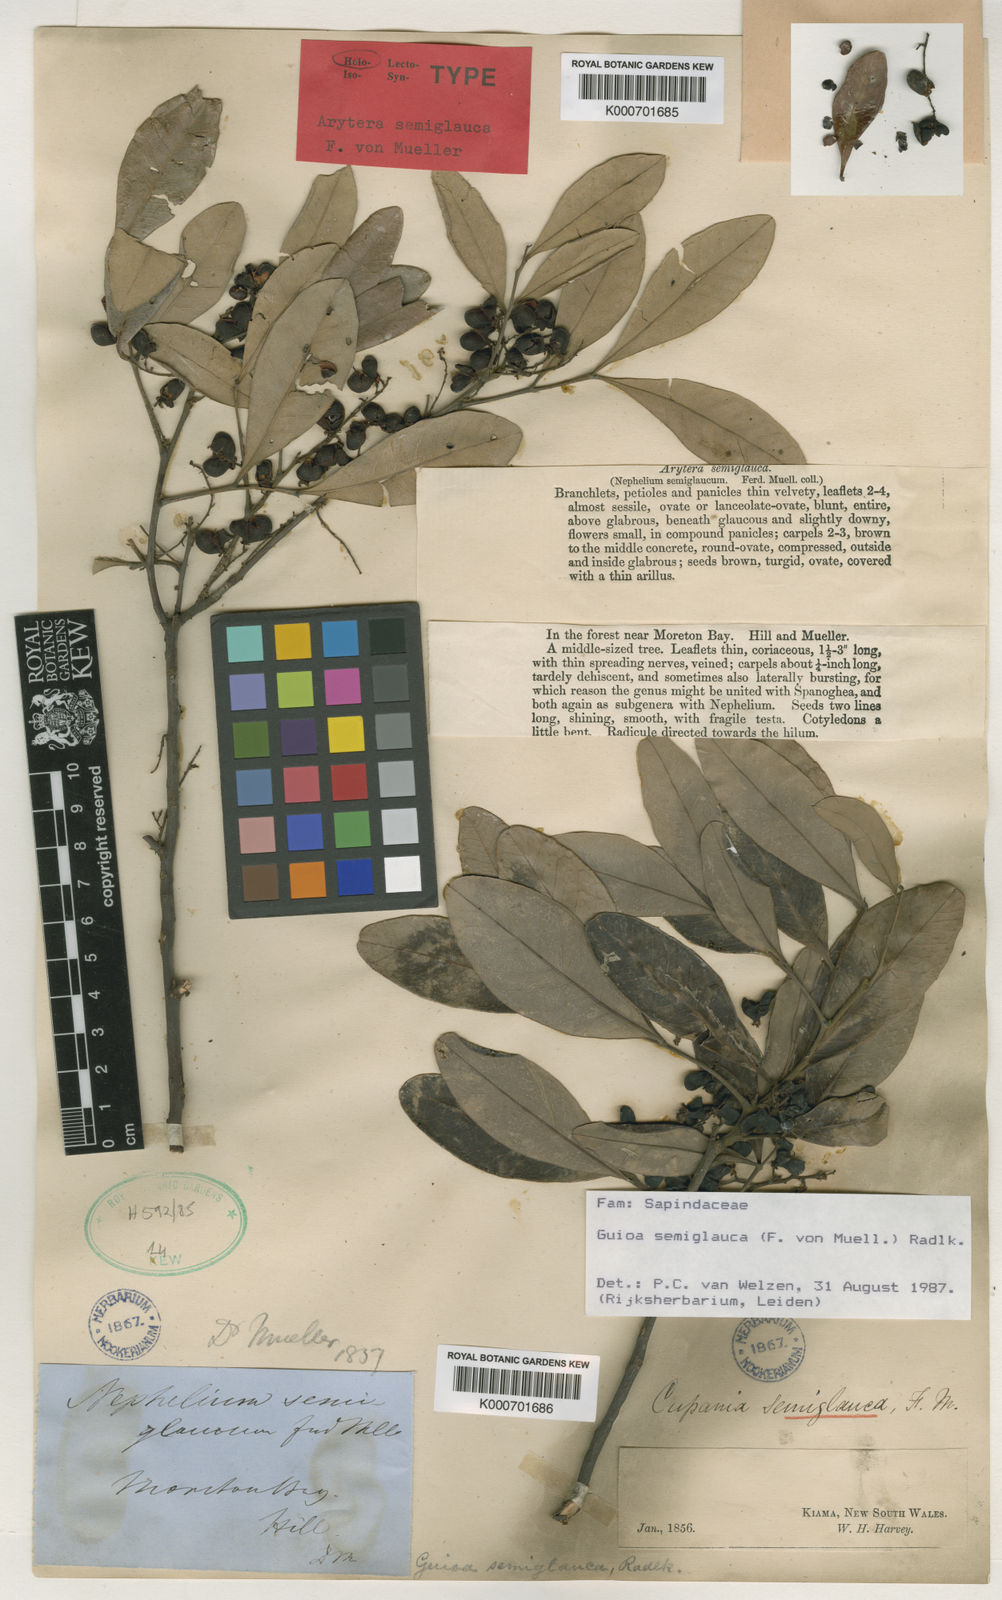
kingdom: Plantae
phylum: Tracheophyta
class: Magnoliopsida
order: Sapindales
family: Sapindaceae
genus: Guioa
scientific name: Guioa semiglauca
